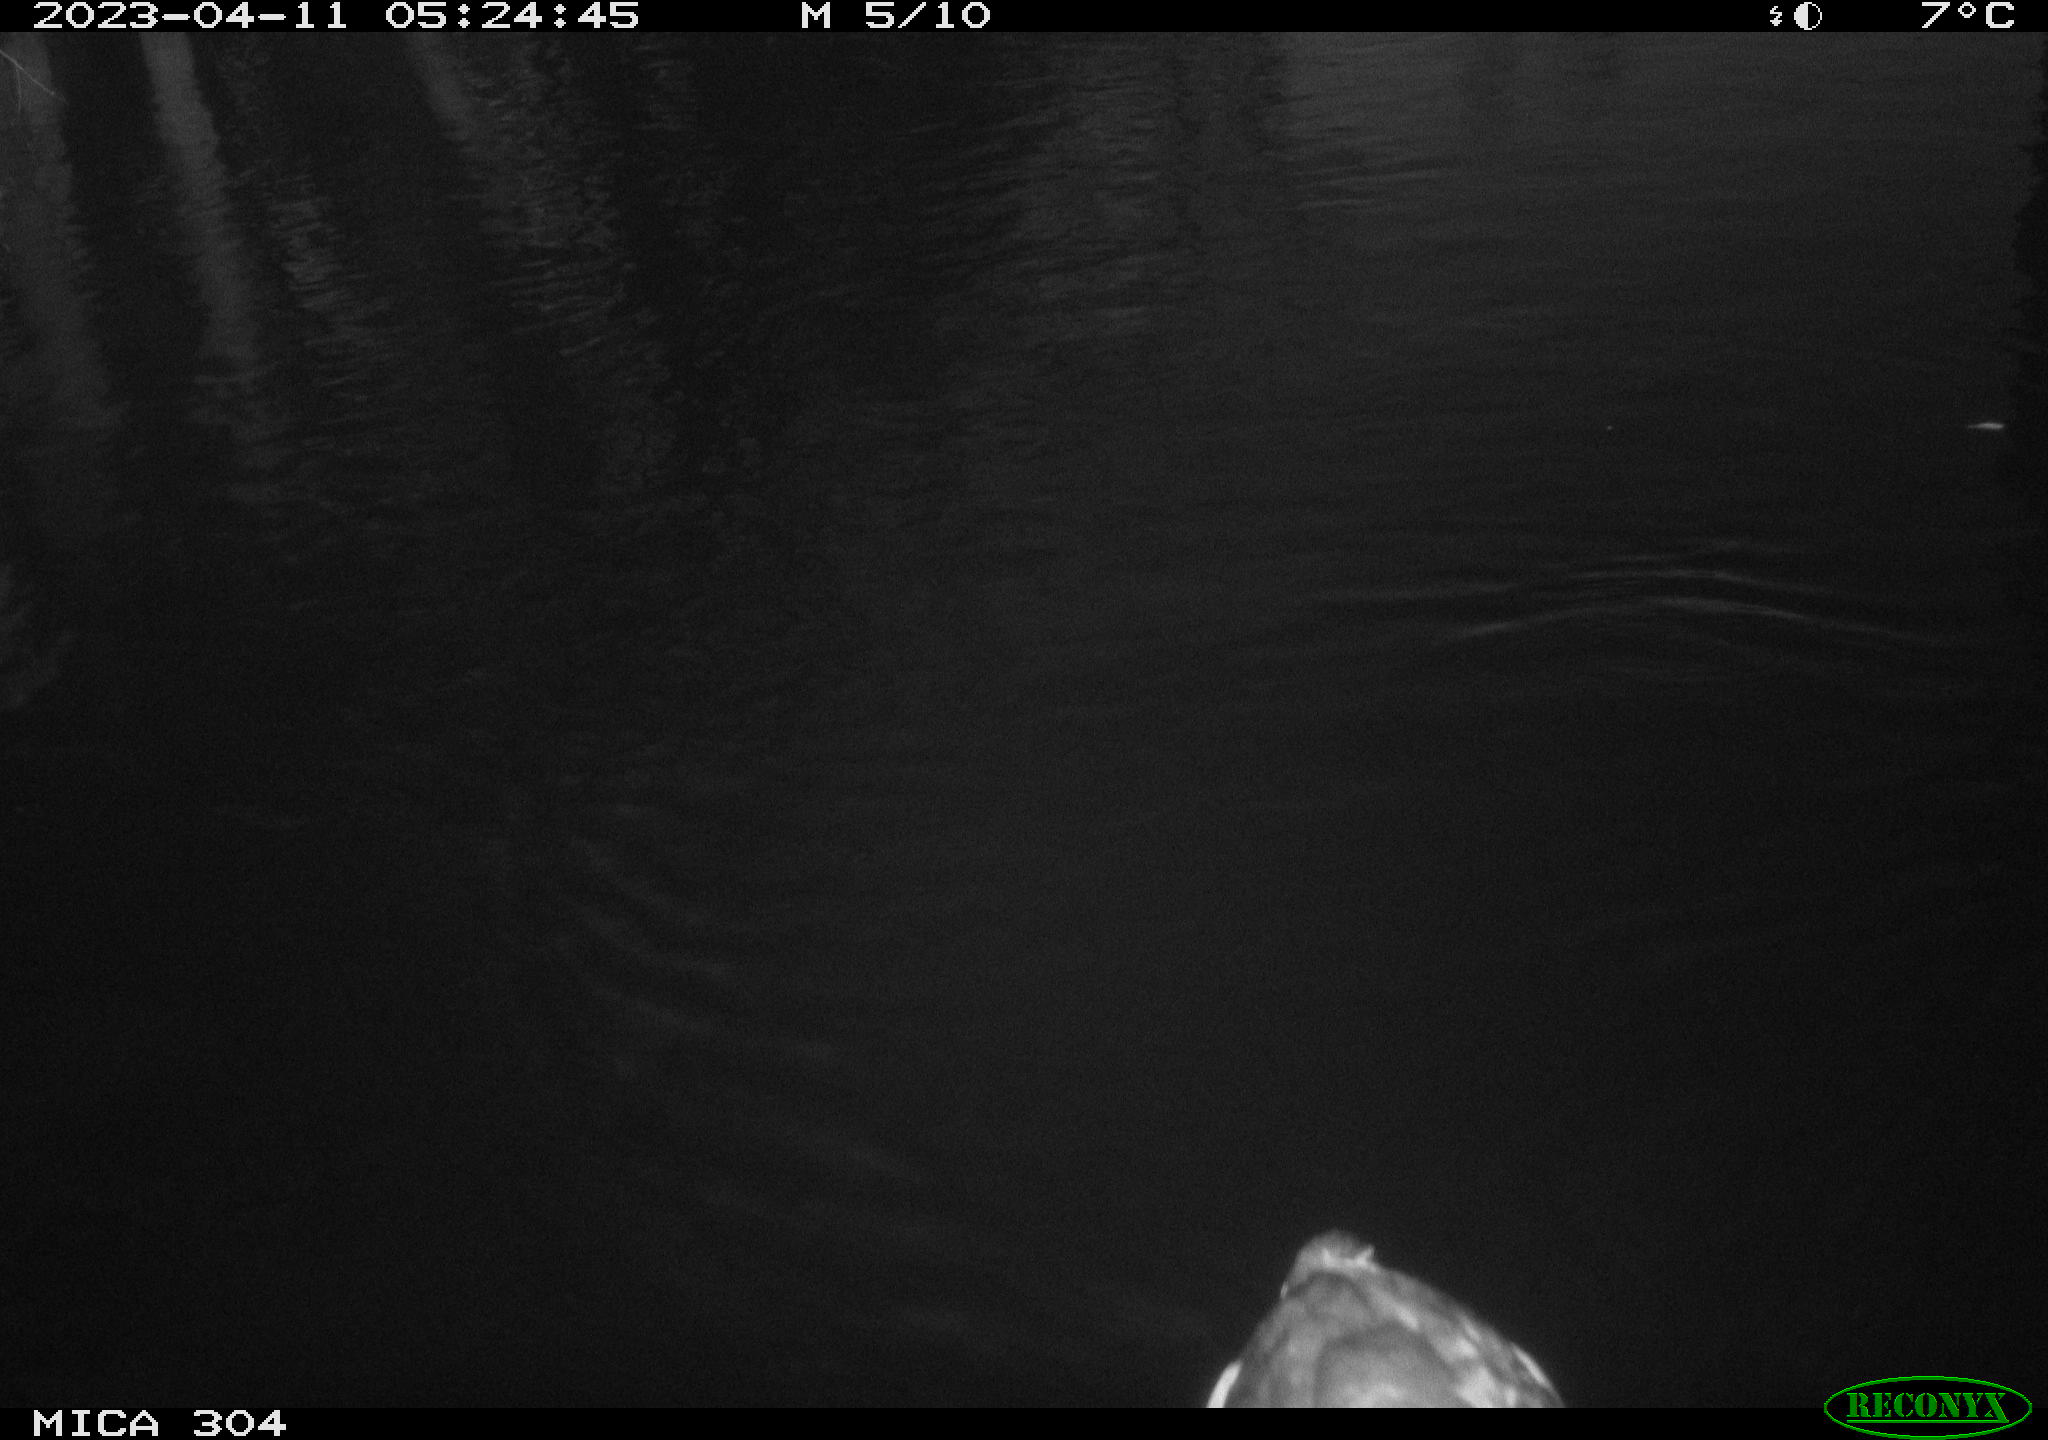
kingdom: Animalia
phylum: Chordata
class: Aves
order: Anseriformes
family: Anatidae
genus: Anas
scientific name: Anas
